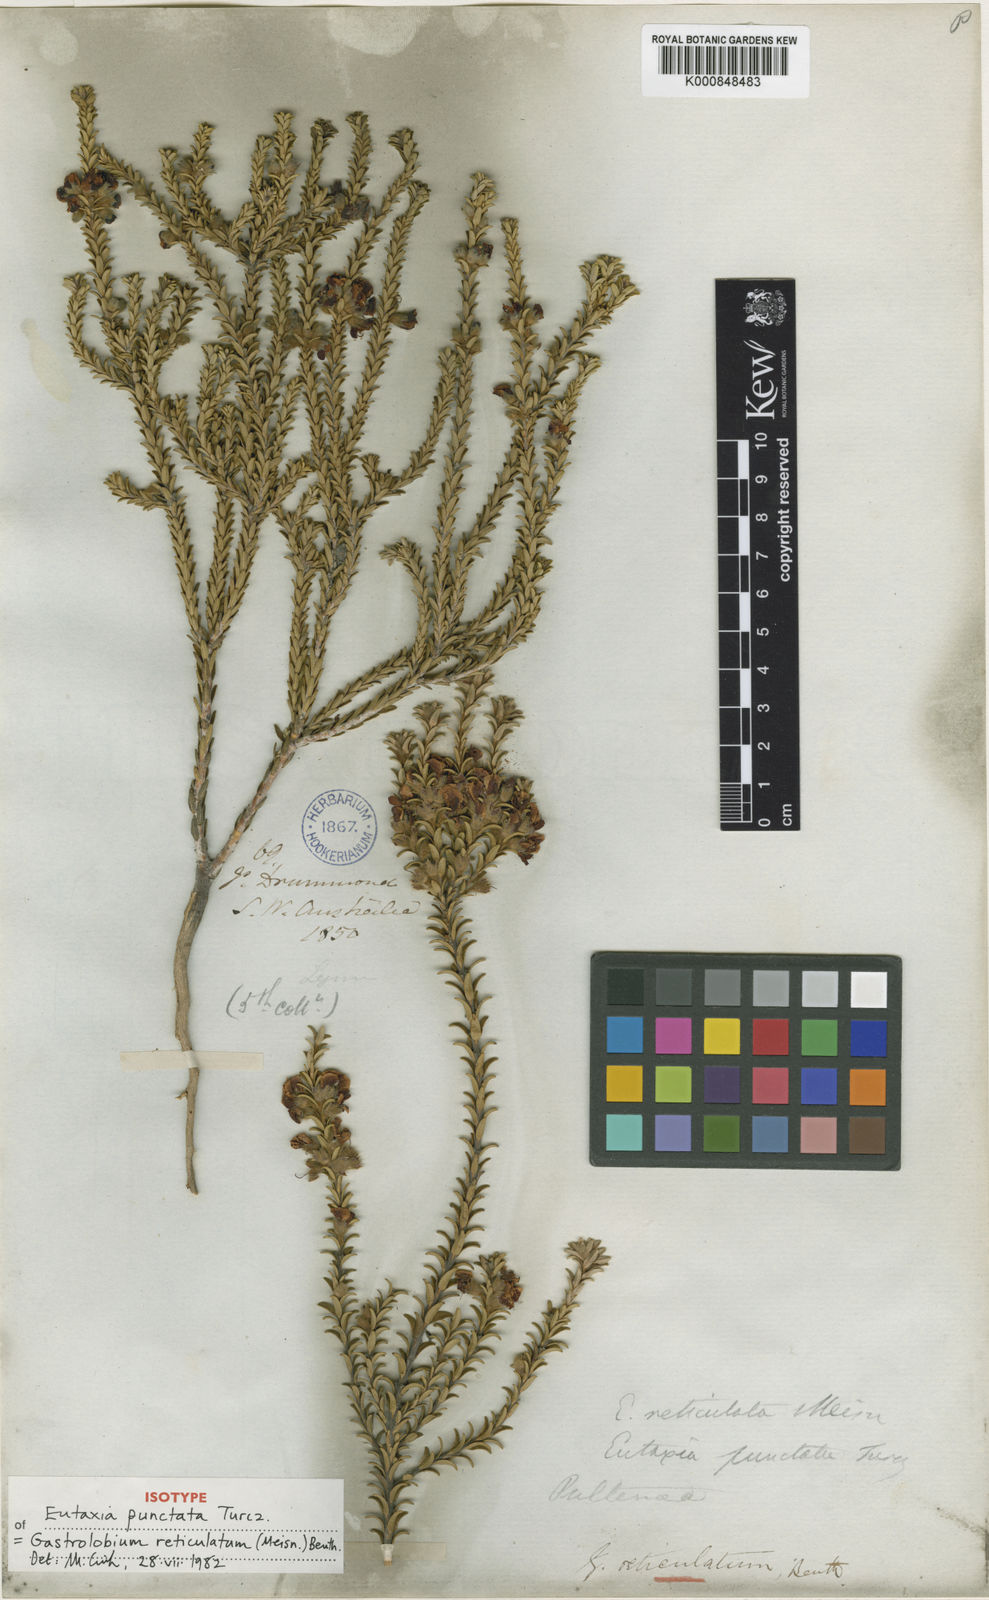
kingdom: Plantae
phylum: Tracheophyta
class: Magnoliopsida
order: Fabales
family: Fabaceae
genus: Gastrolobium
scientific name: Gastrolobium reticulatum
